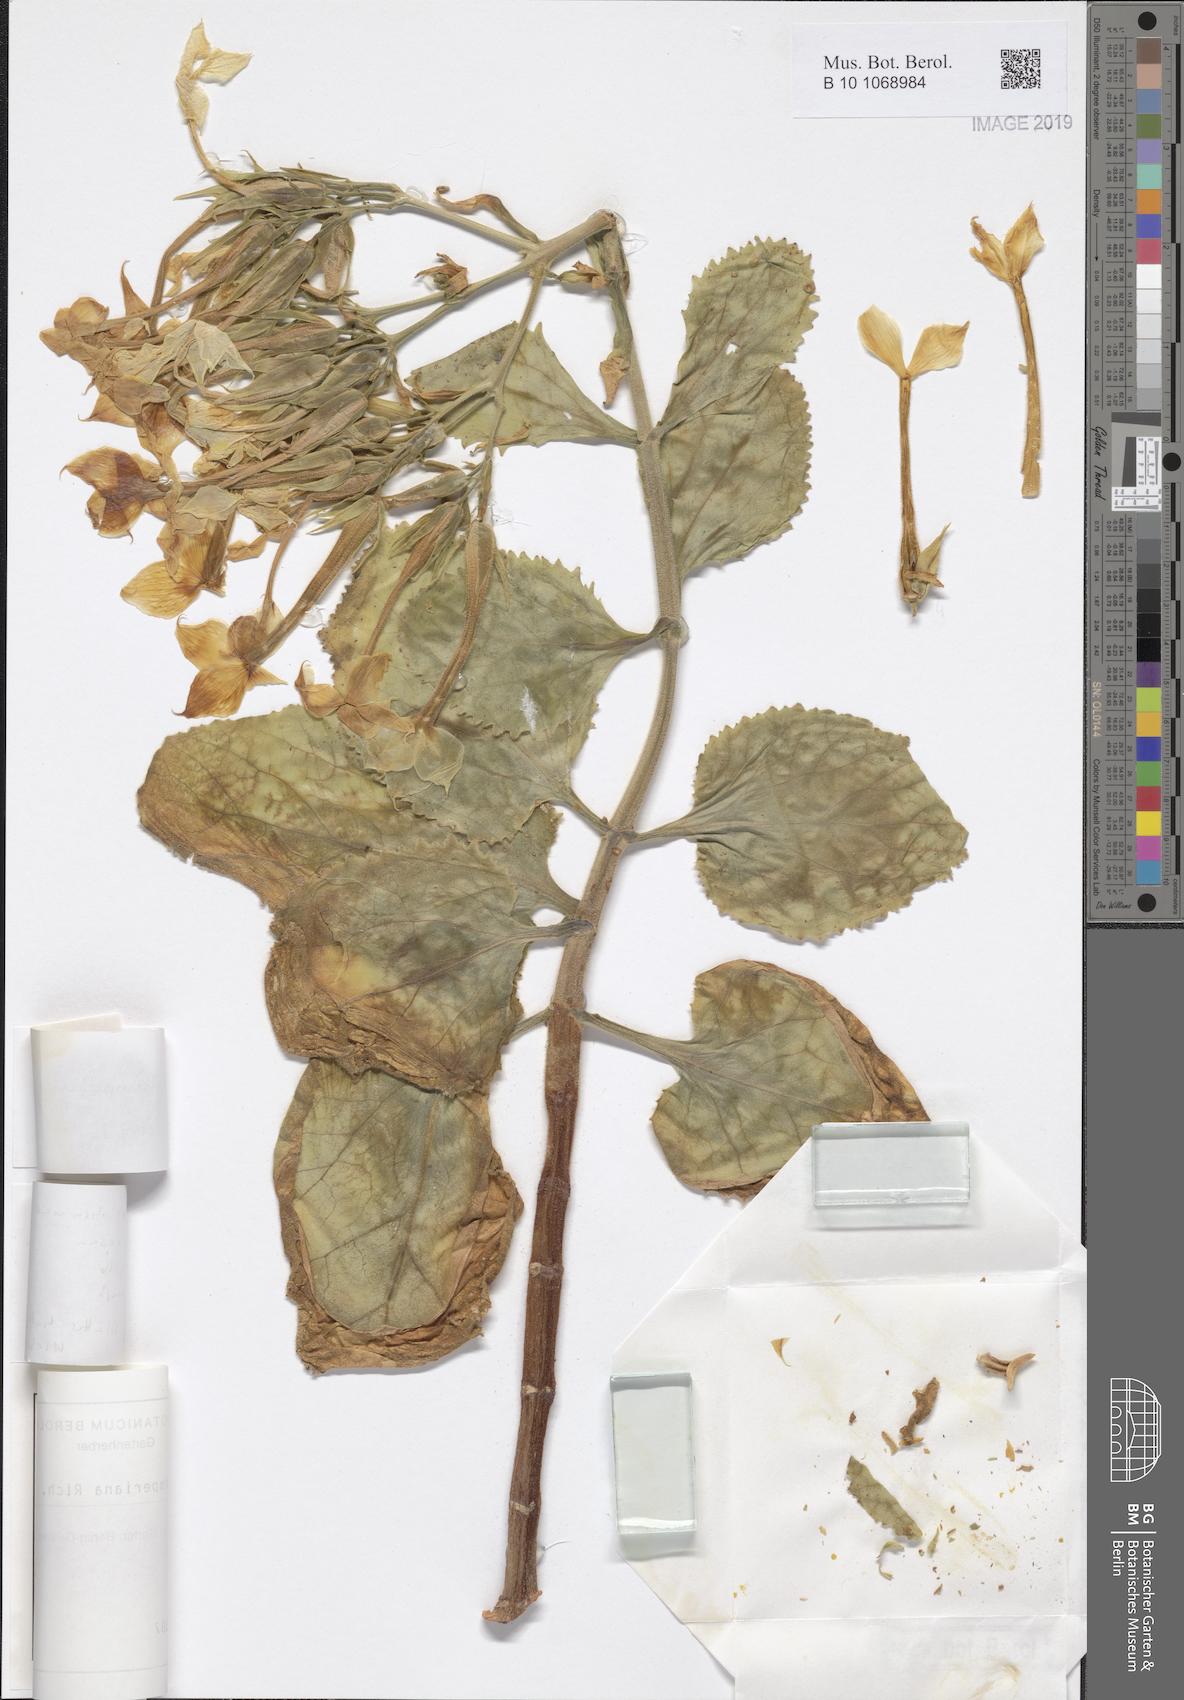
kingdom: Plantae
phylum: Tracheophyta
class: Magnoliopsida
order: Saxifragales
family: Crassulaceae
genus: Kalanchoe
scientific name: Kalanchoe schimperiana
